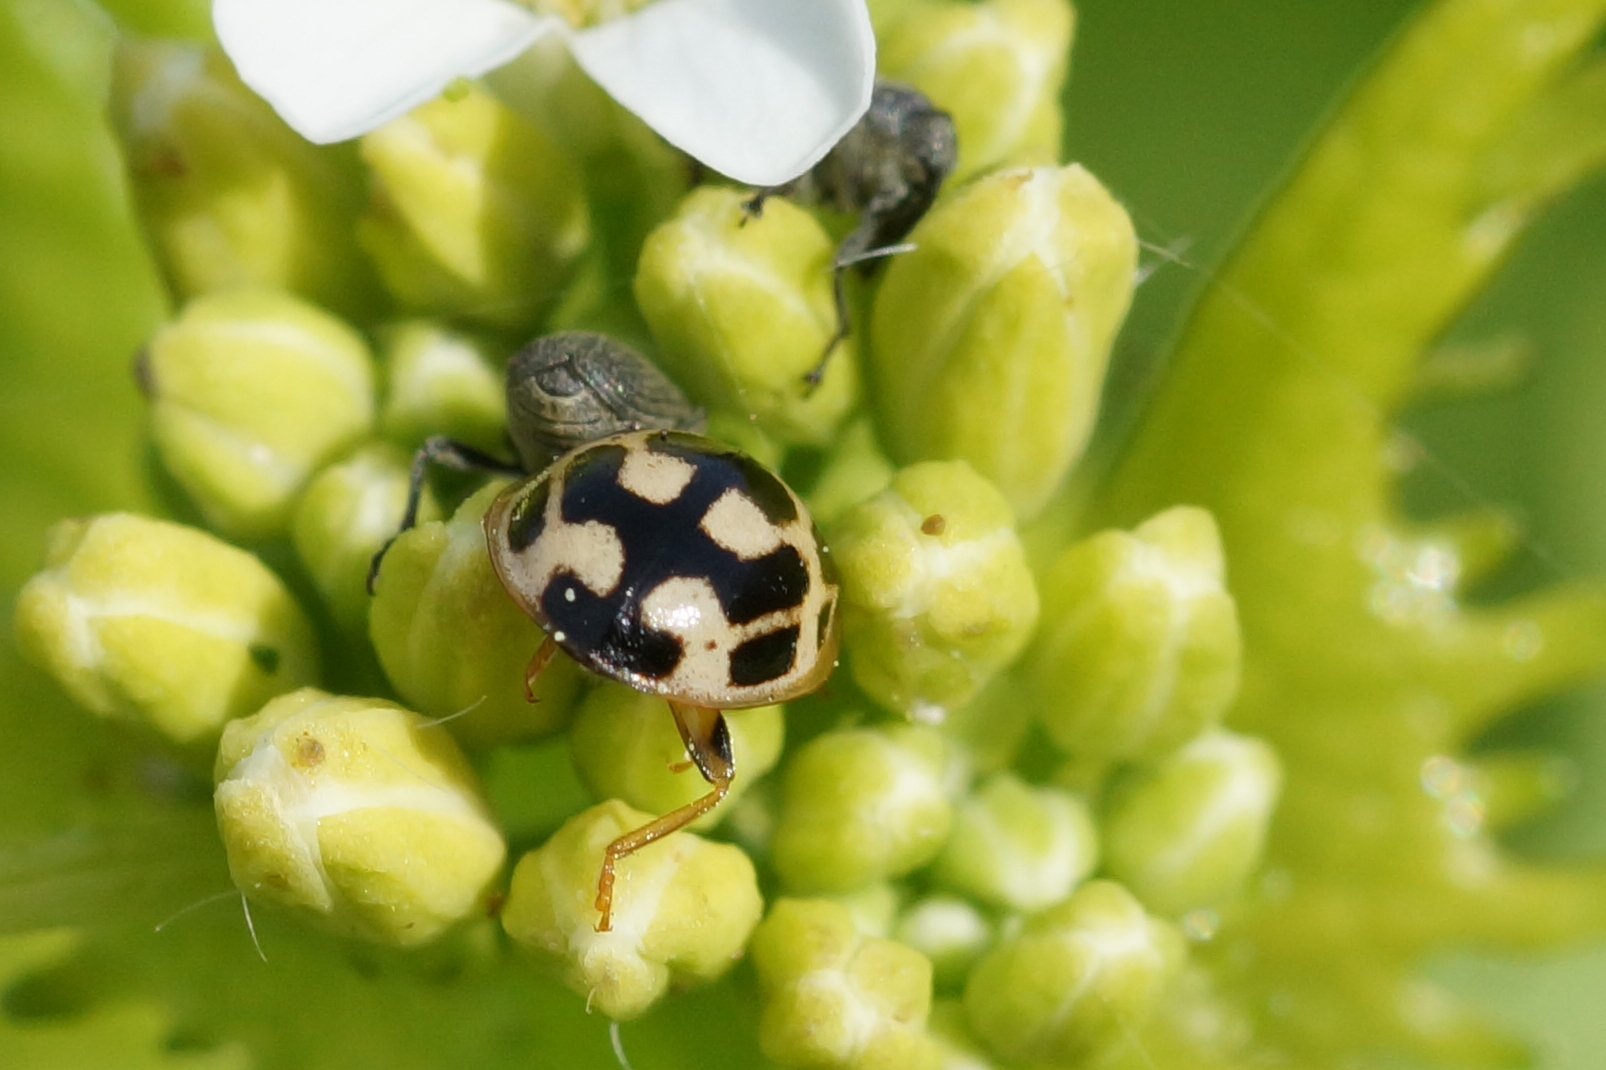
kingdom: Animalia
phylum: Arthropoda
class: Insecta
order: Coleoptera
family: Coccinellidae
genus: Propylaea
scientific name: Propylaea quatuordecimpunctata
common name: Skakbræt
